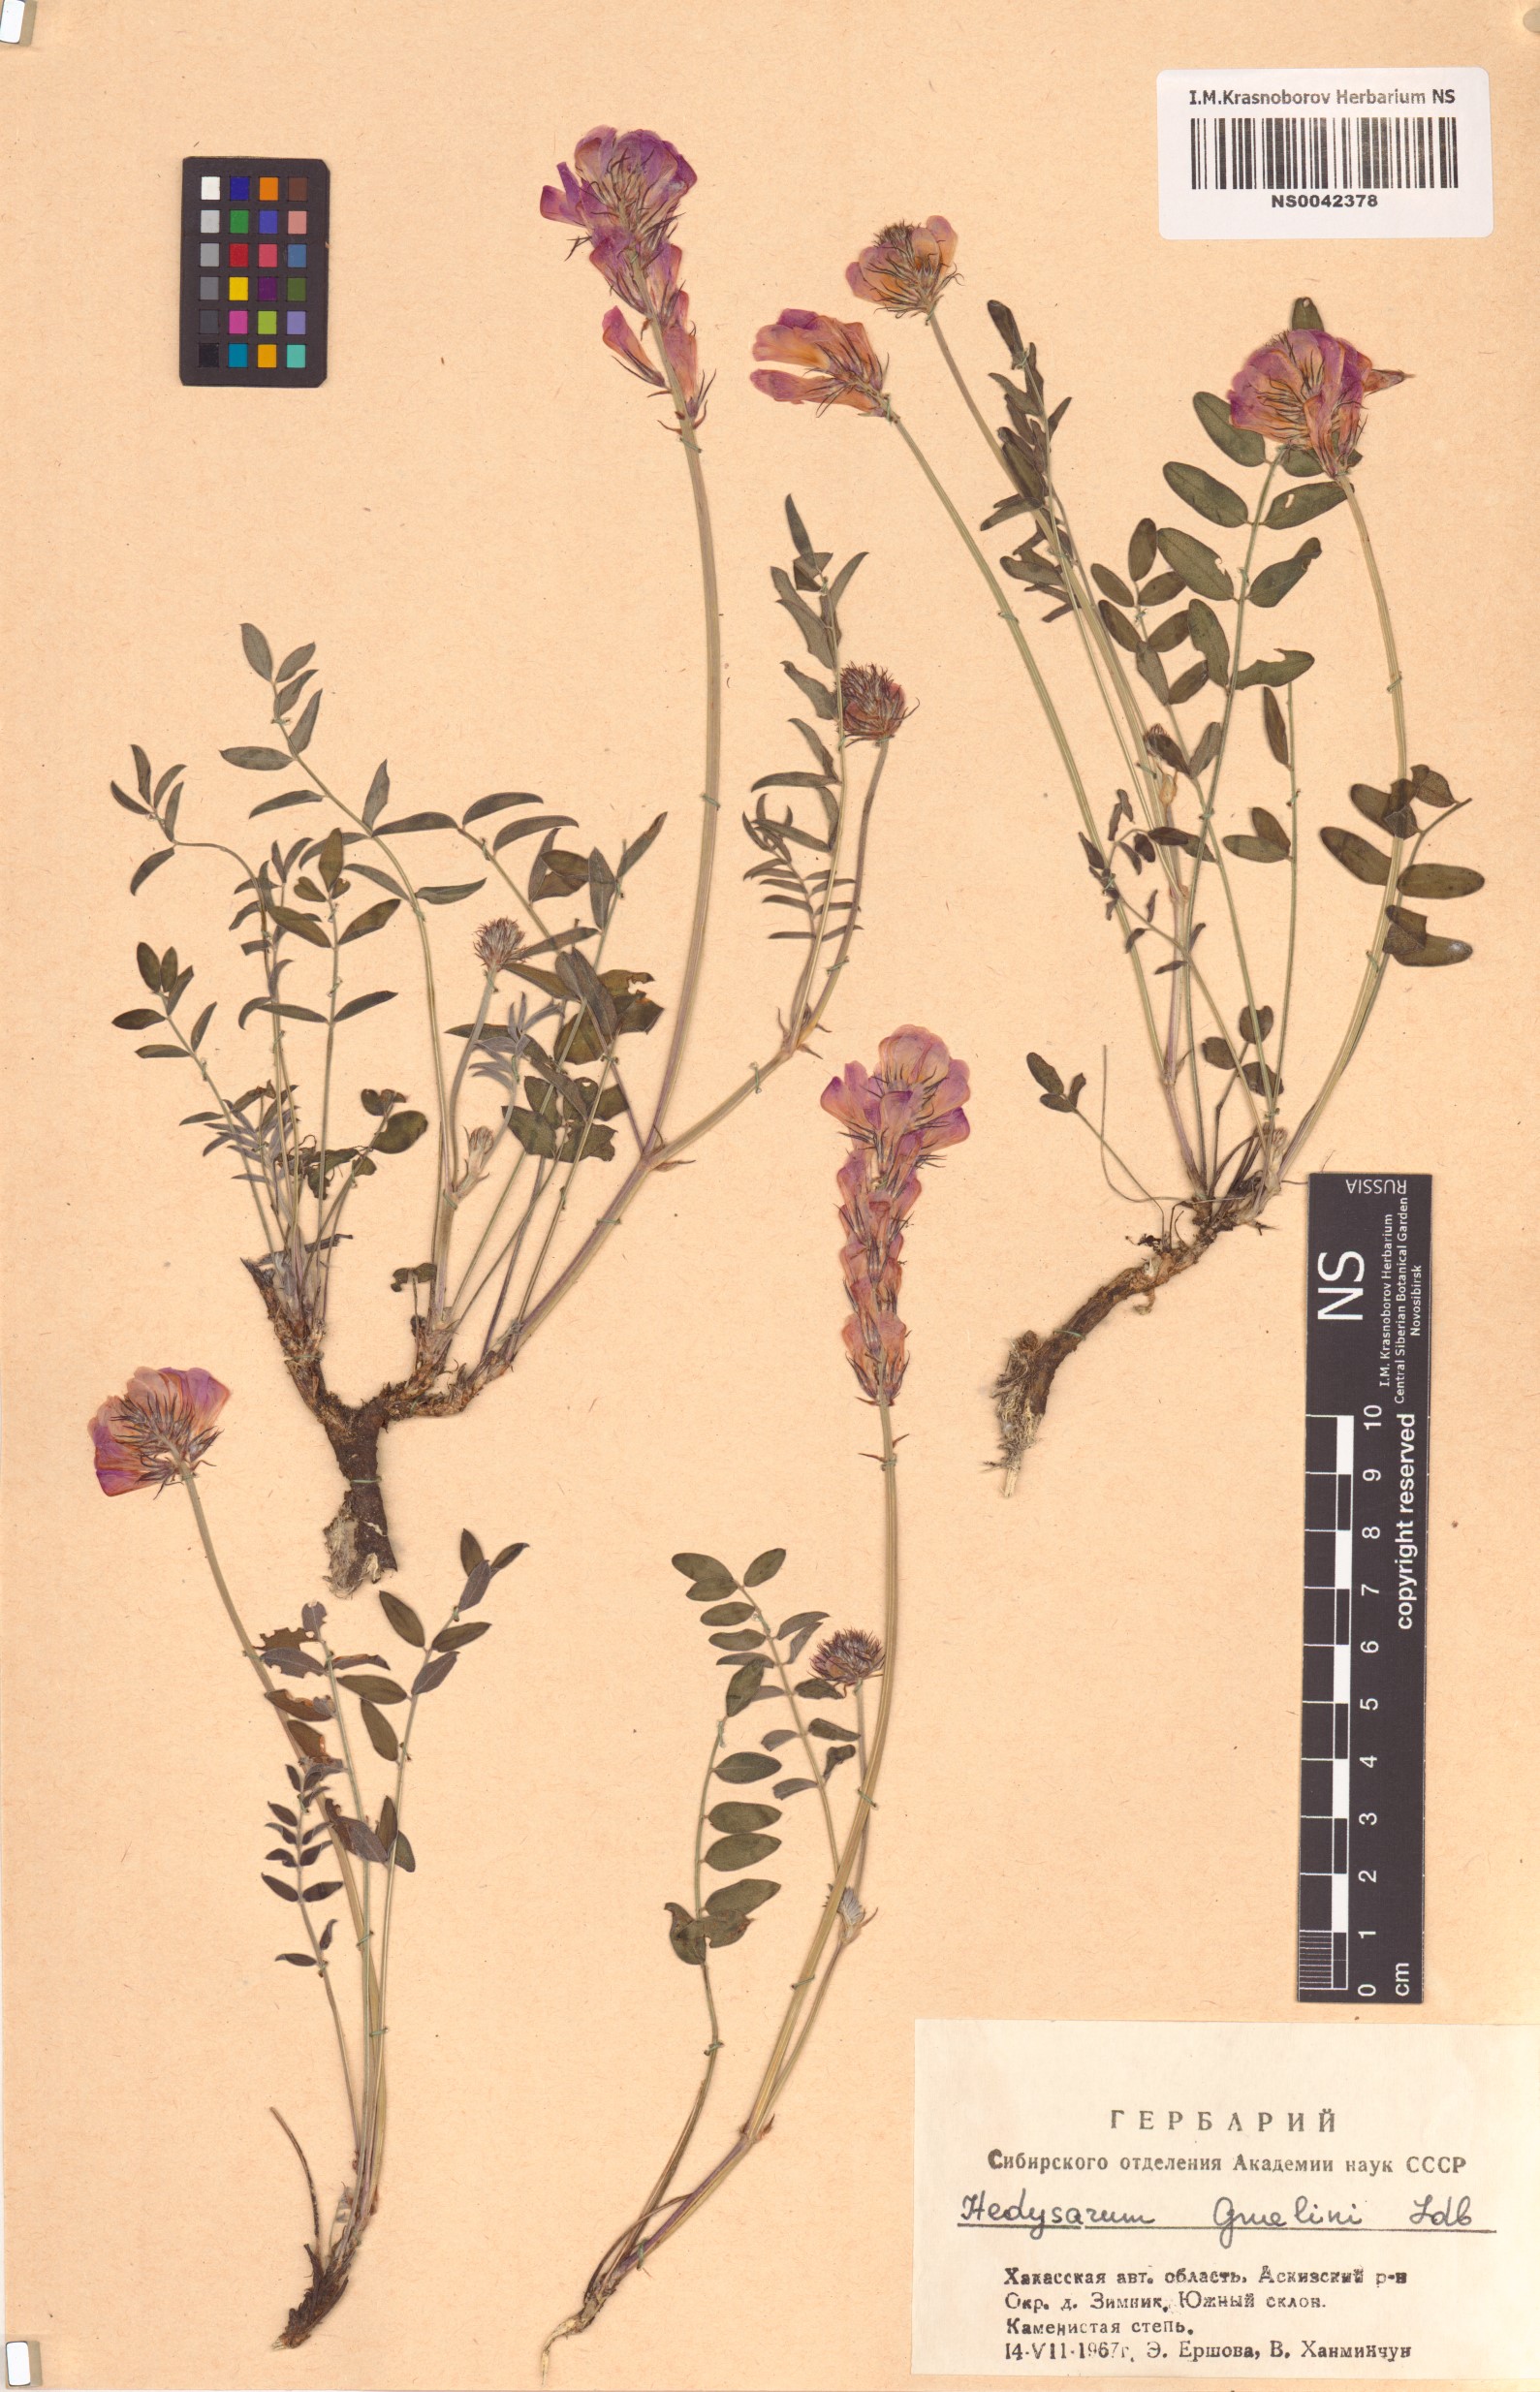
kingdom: Plantae
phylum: Tracheophyta
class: Magnoliopsida
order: Fabales
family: Fabaceae
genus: Hedysarum
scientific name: Hedysarum gmelinii
